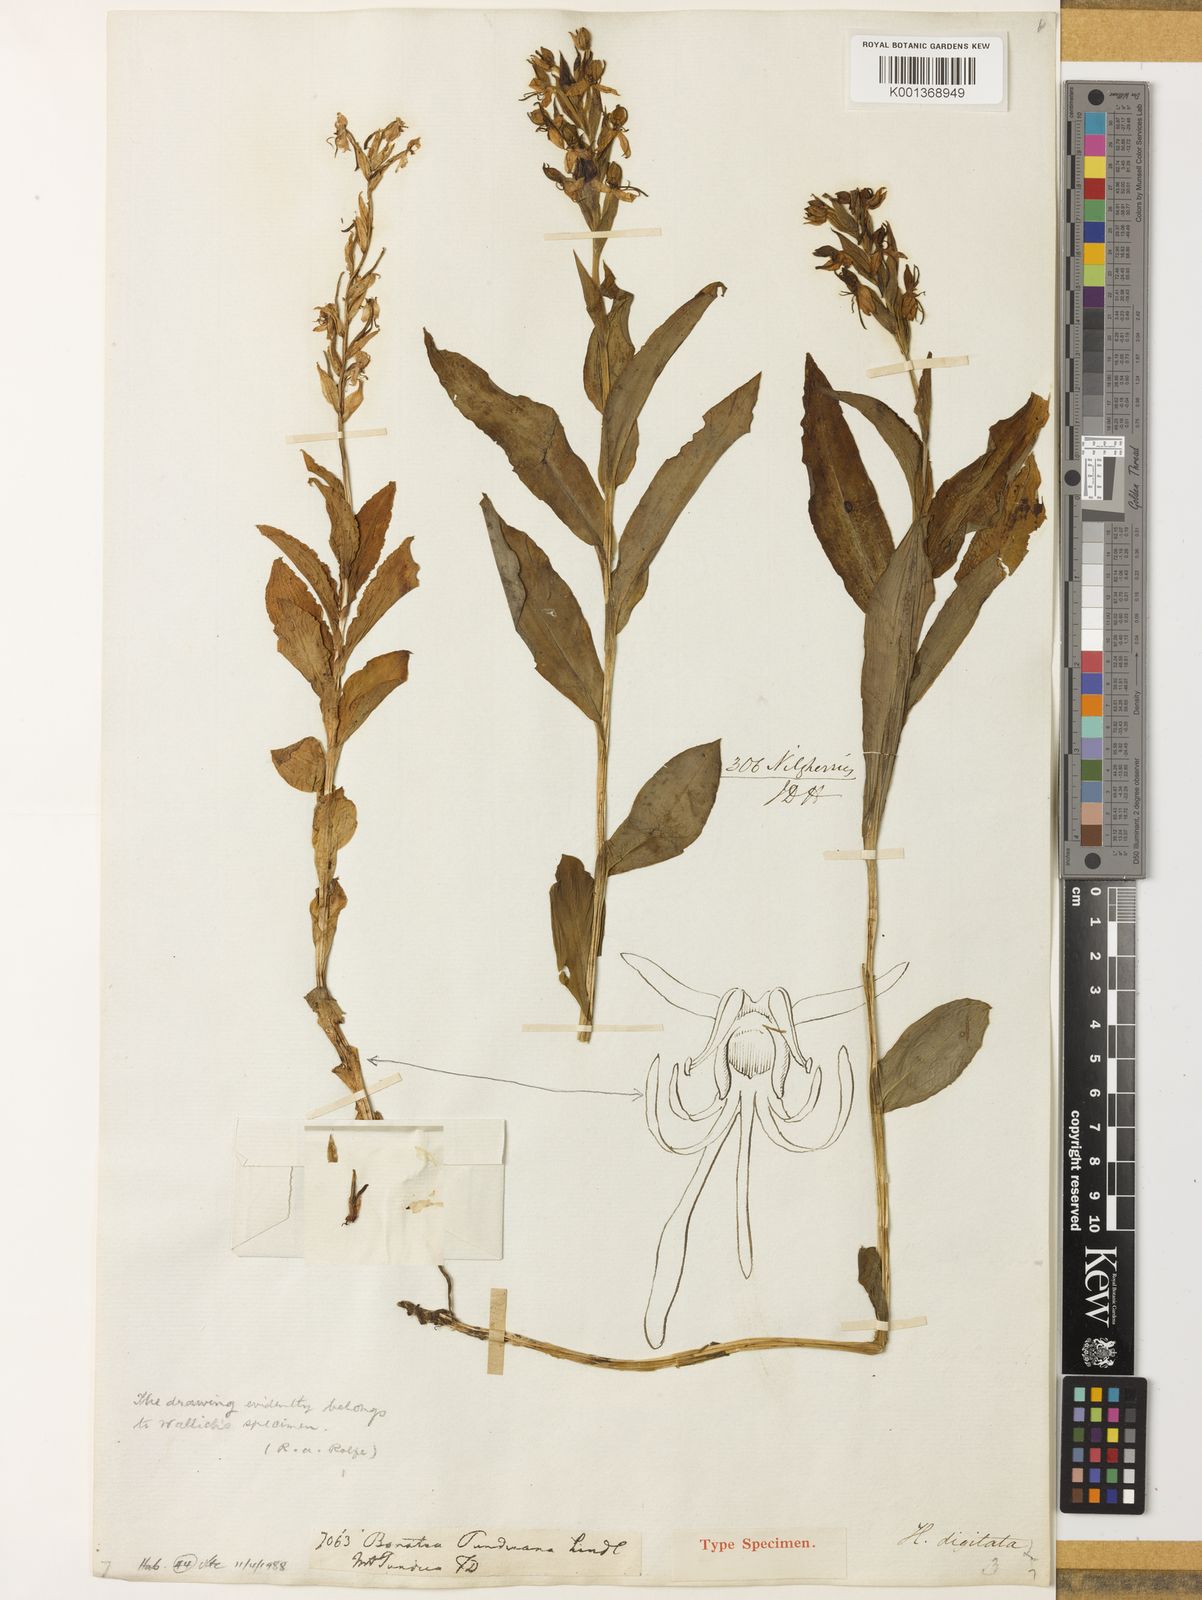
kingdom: Plantae
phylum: Tracheophyta
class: Liliopsida
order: Asparagales
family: Orchidaceae
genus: Habenaria
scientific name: Habenaria digitata
